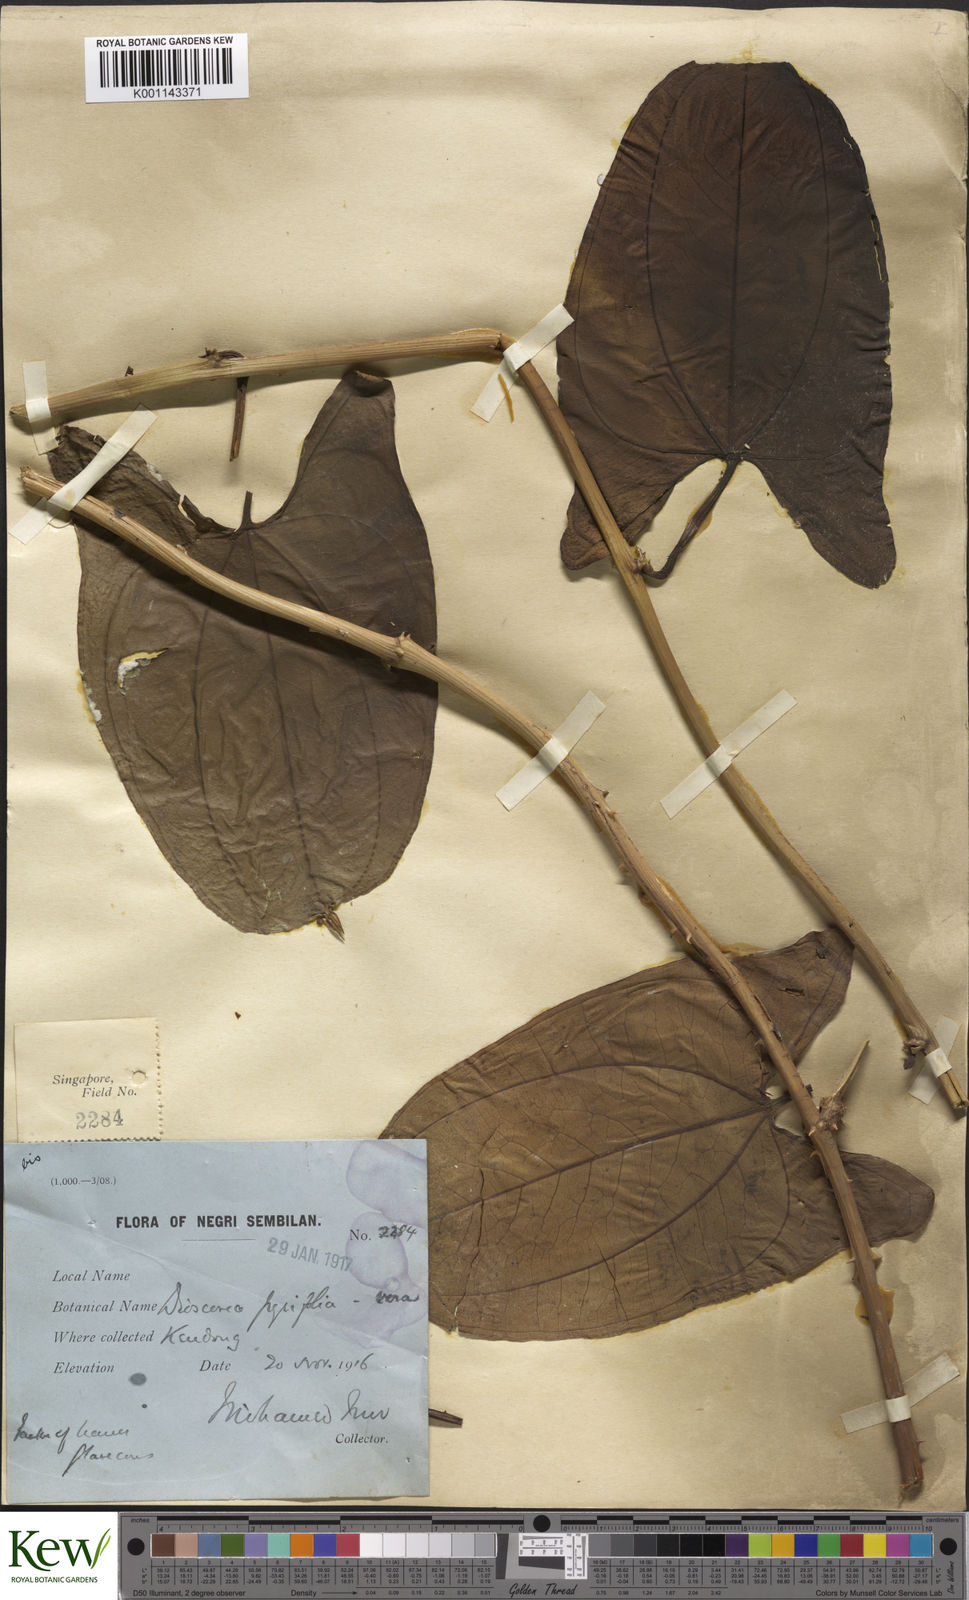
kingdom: Plantae
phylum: Tracheophyta
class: Liliopsida
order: Dioscoreales
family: Dioscoreaceae
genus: Dioscorea
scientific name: Dioscorea pyrifolia
